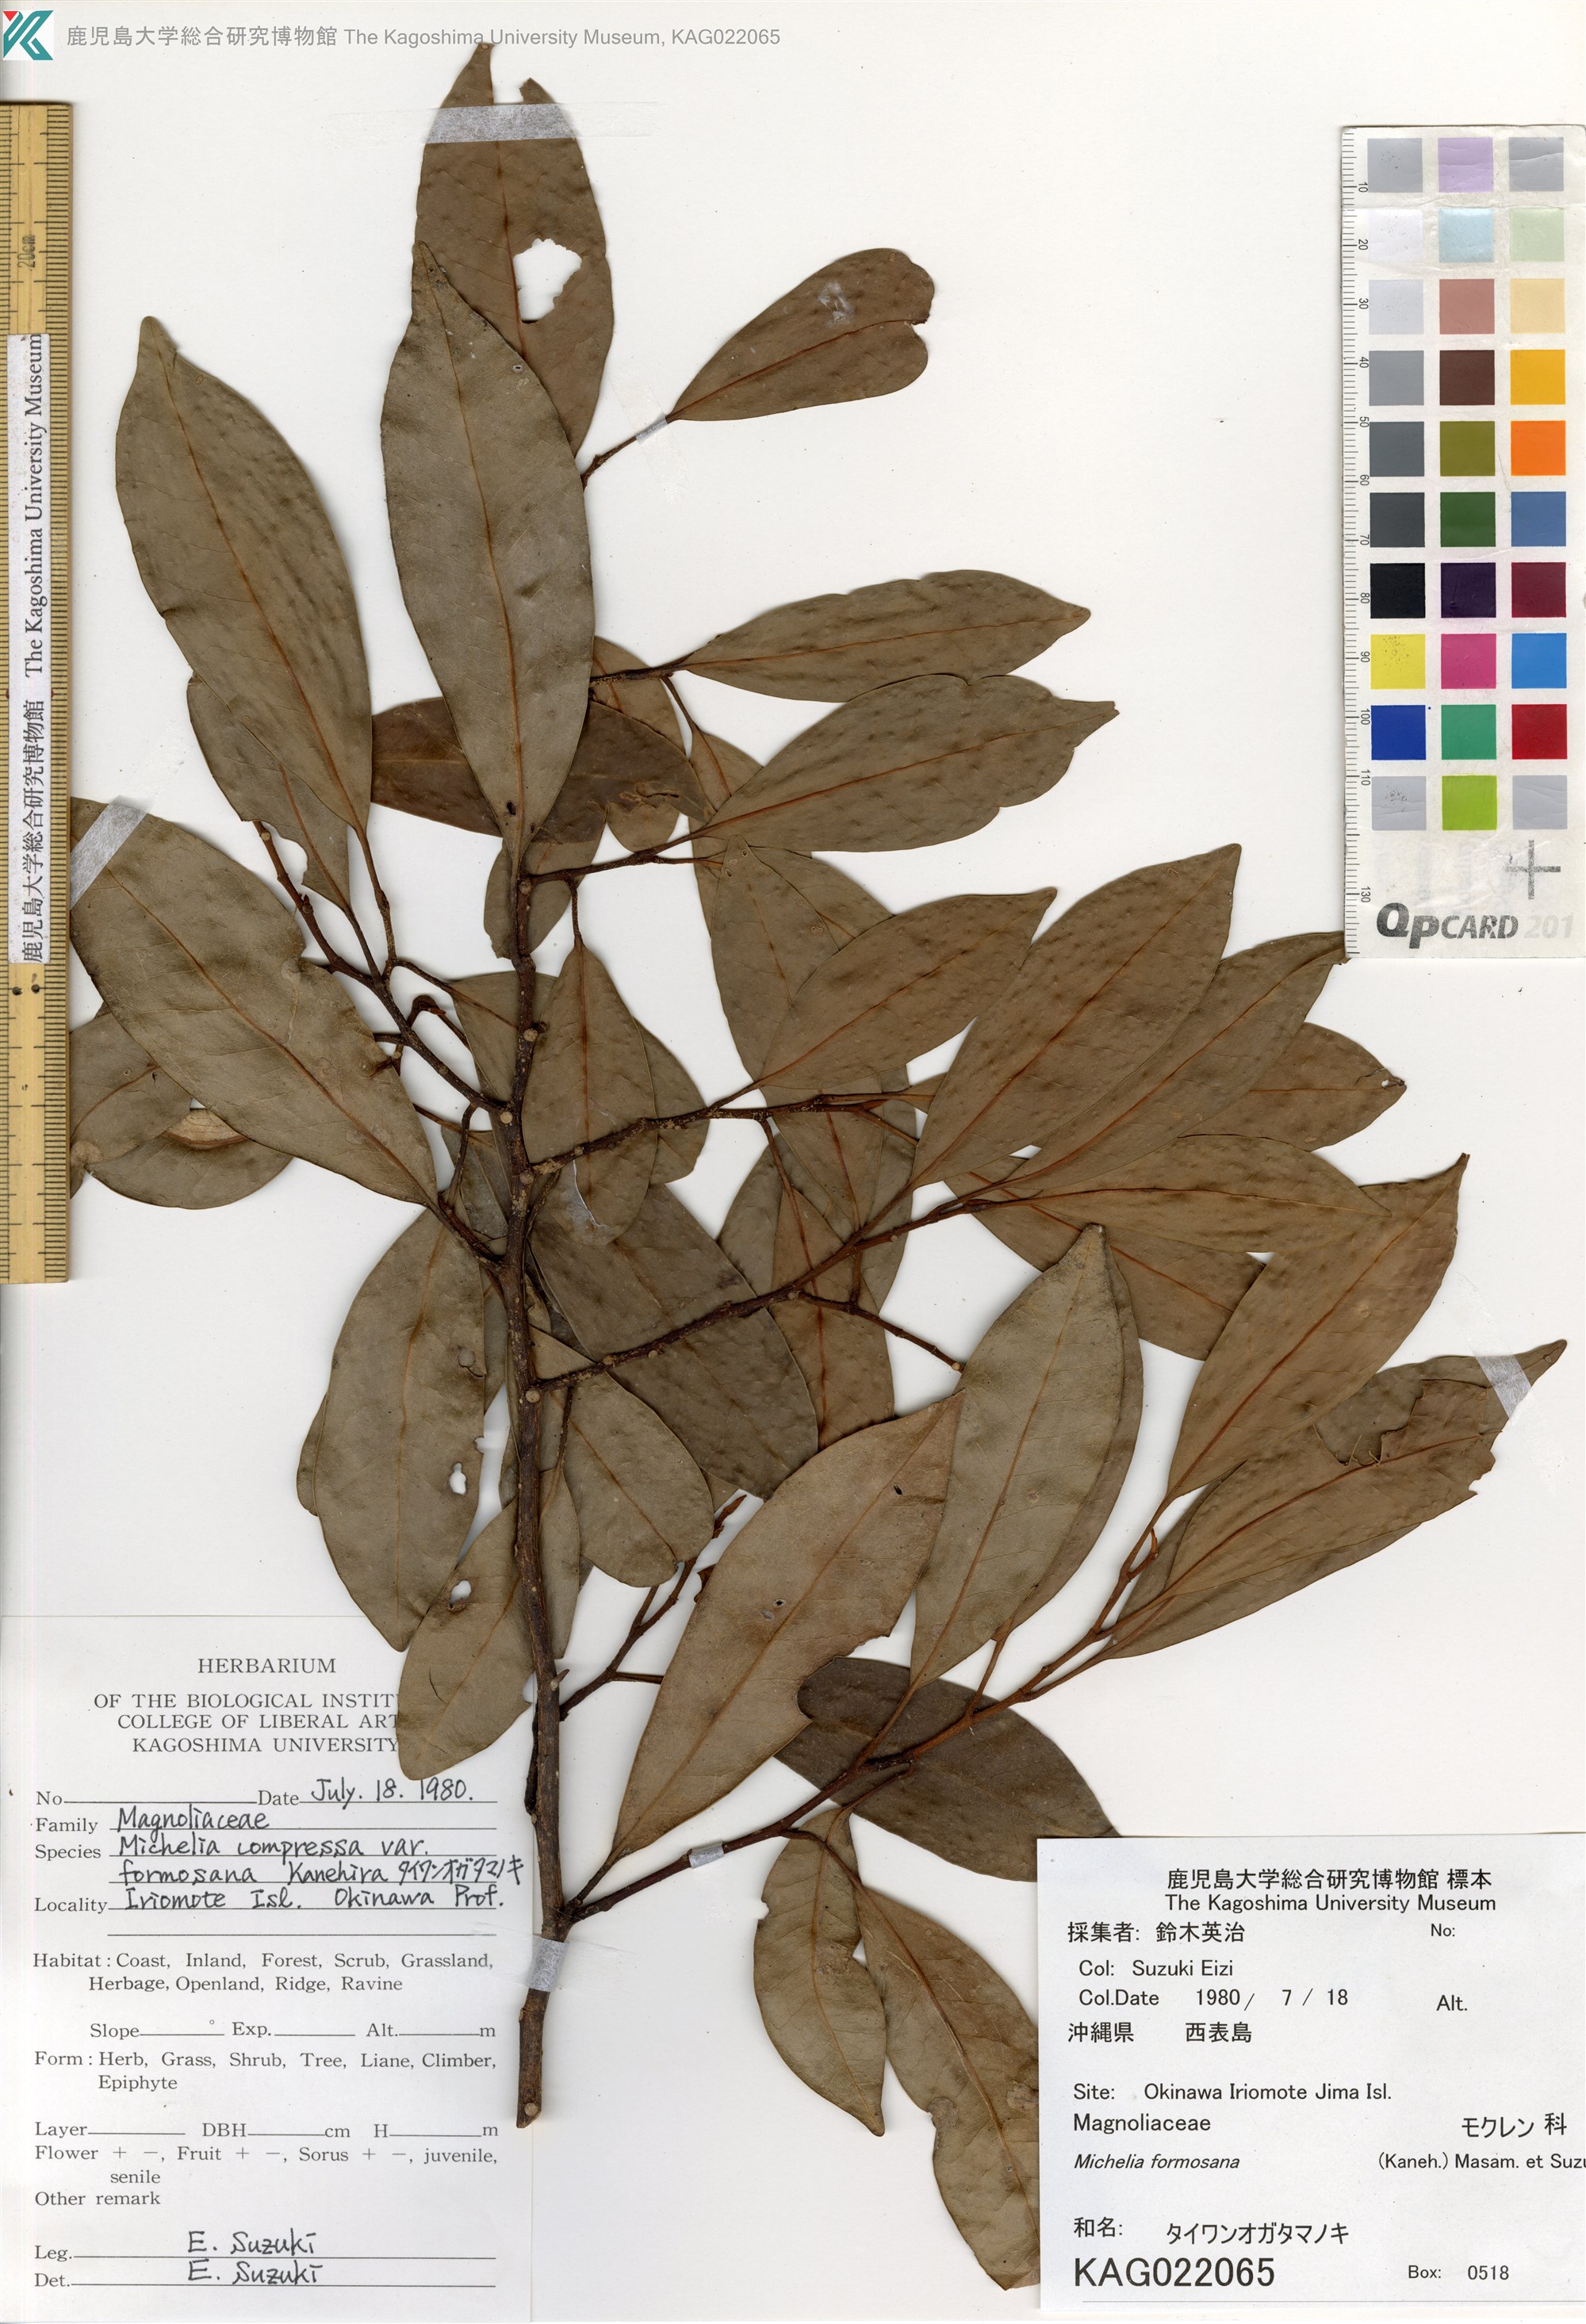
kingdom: Plantae
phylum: Tracheophyta
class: Magnoliopsida
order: Magnoliales
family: Magnoliaceae
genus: Magnolia
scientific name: Magnolia compressa
